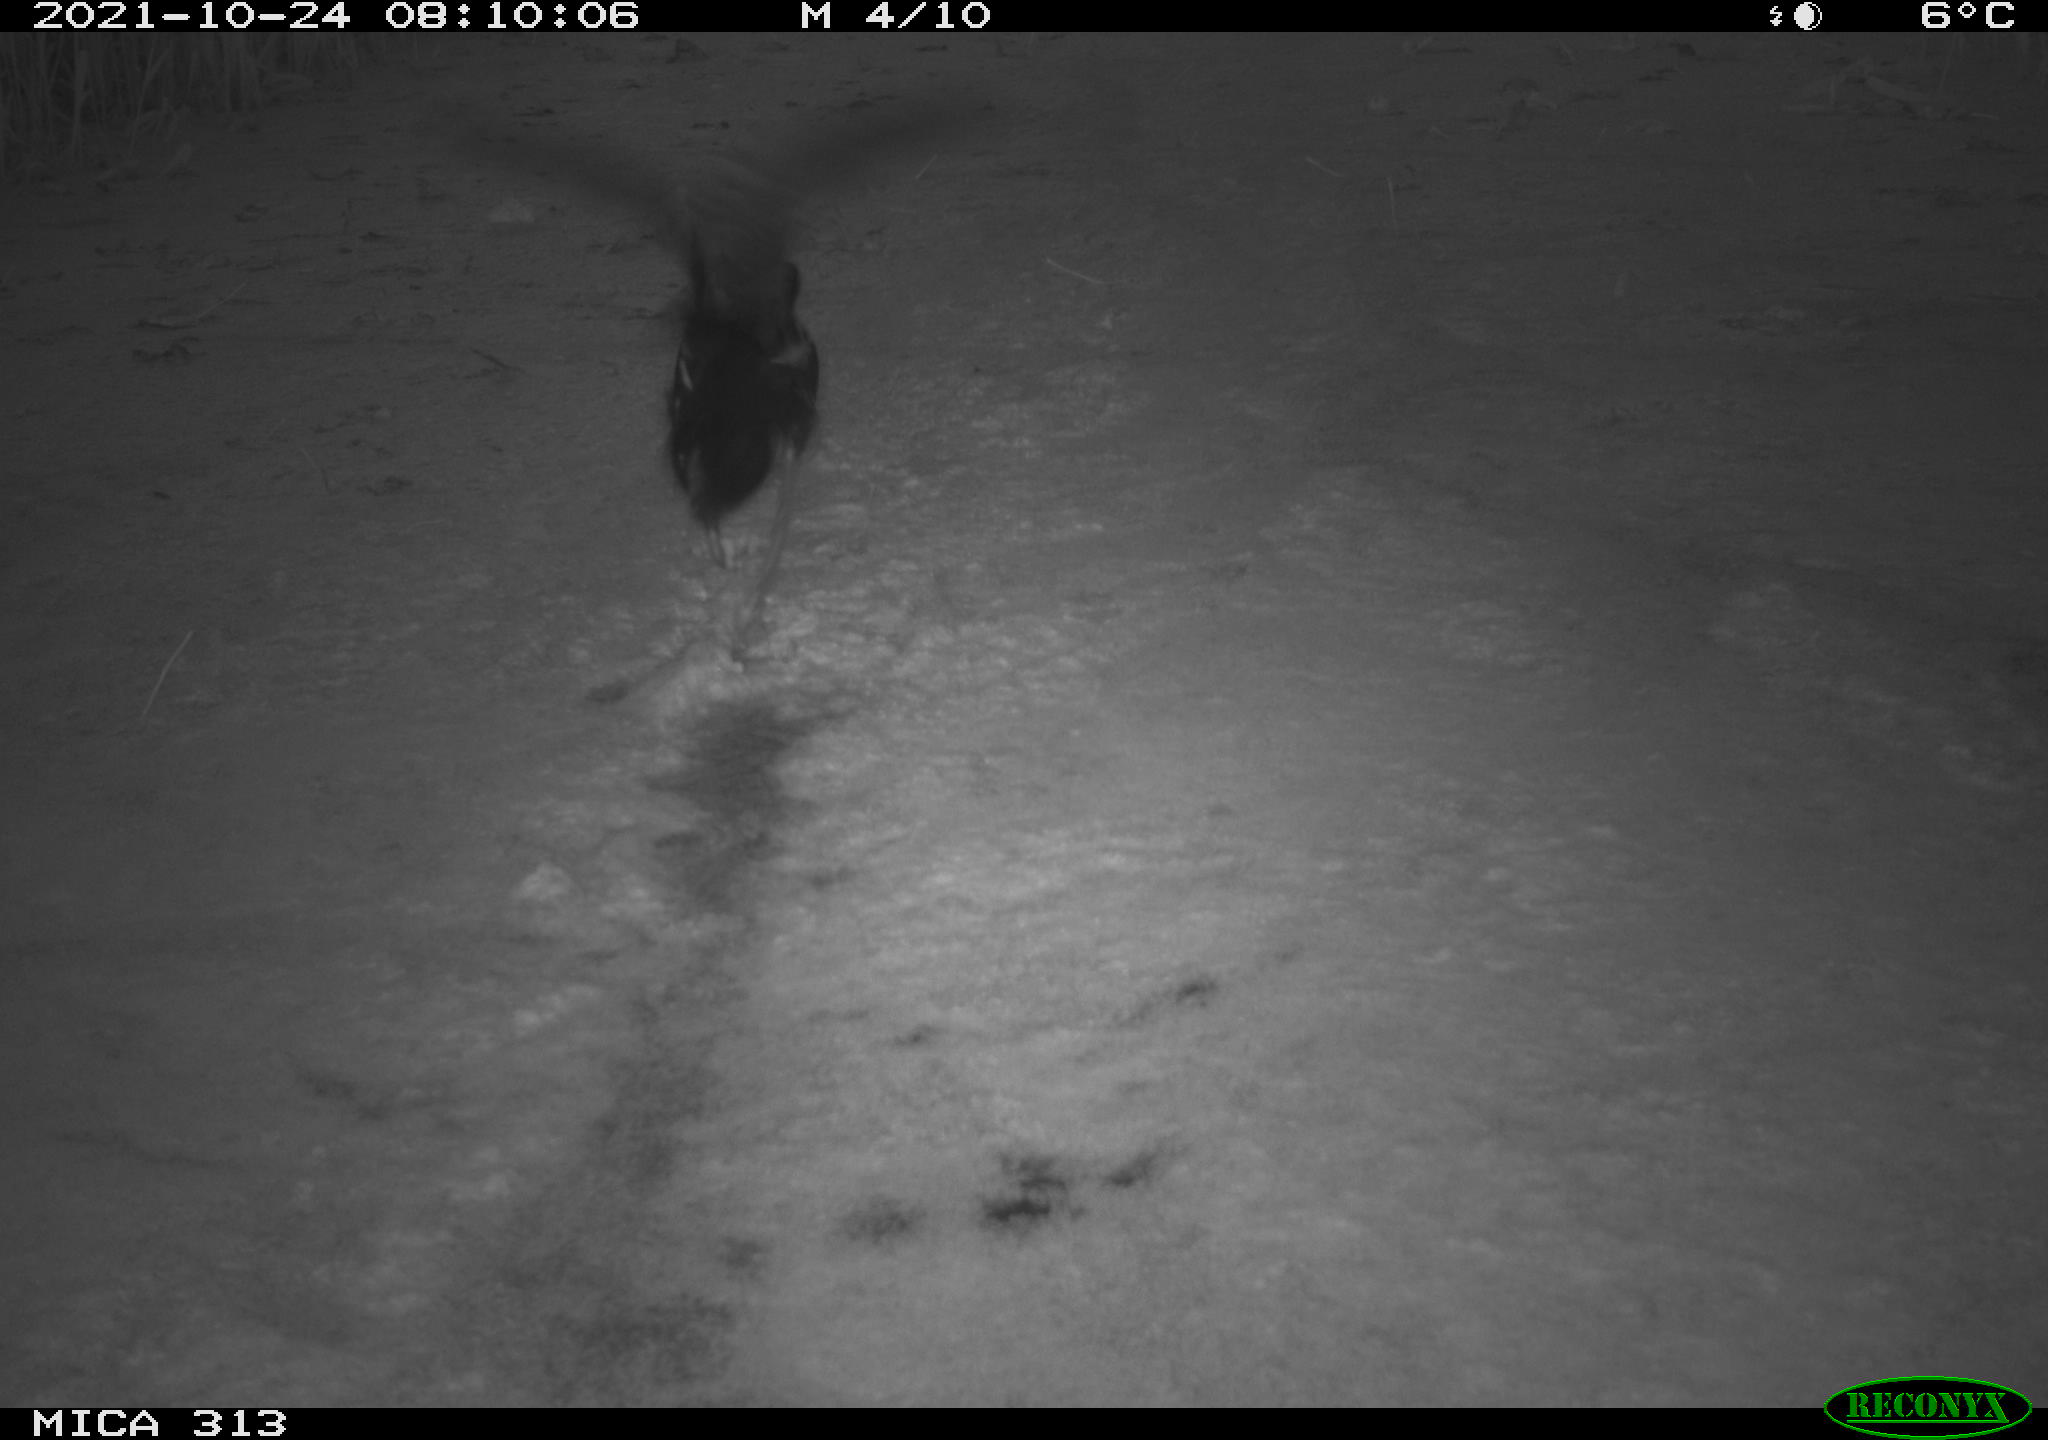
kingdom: Animalia
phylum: Chordata
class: Aves
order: Gruiformes
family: Rallidae
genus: Gallinula
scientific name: Gallinula chloropus
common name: Common moorhen
